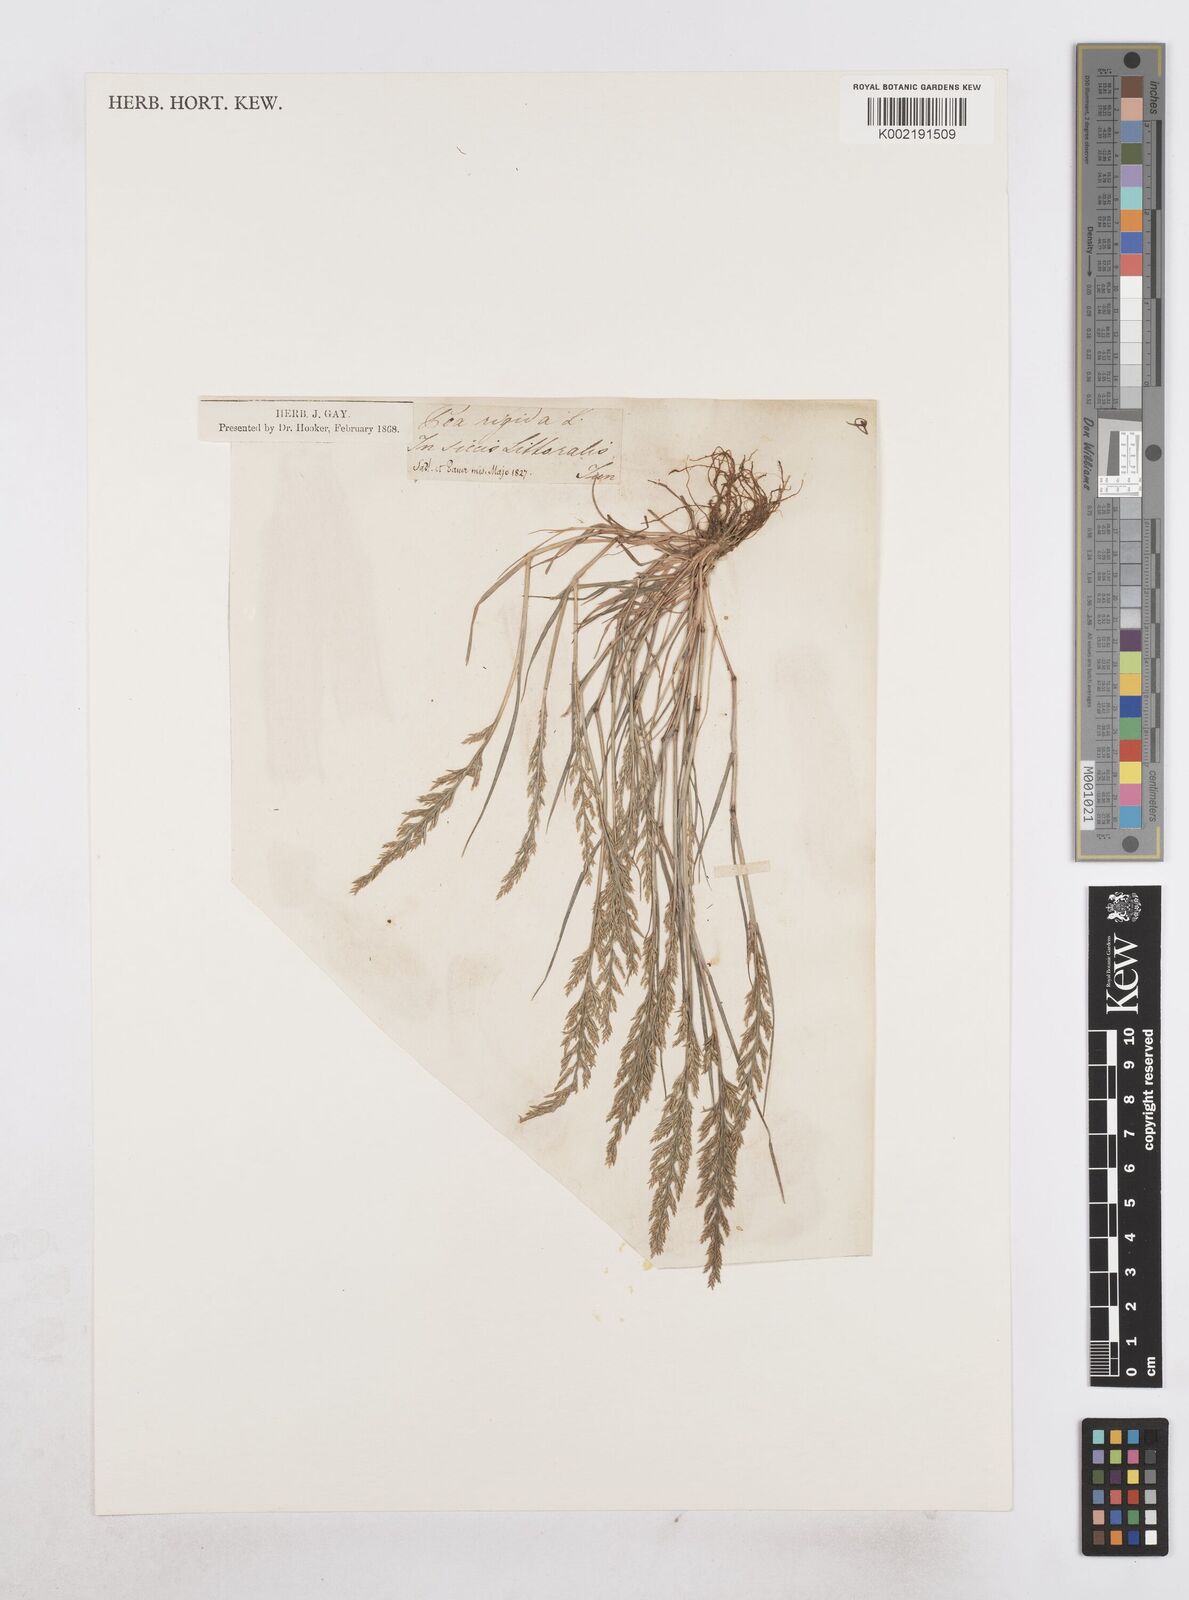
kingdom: Plantae
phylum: Tracheophyta
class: Liliopsida
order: Poales
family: Poaceae
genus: Catapodium
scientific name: Catapodium rigidum
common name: Fern-grass
